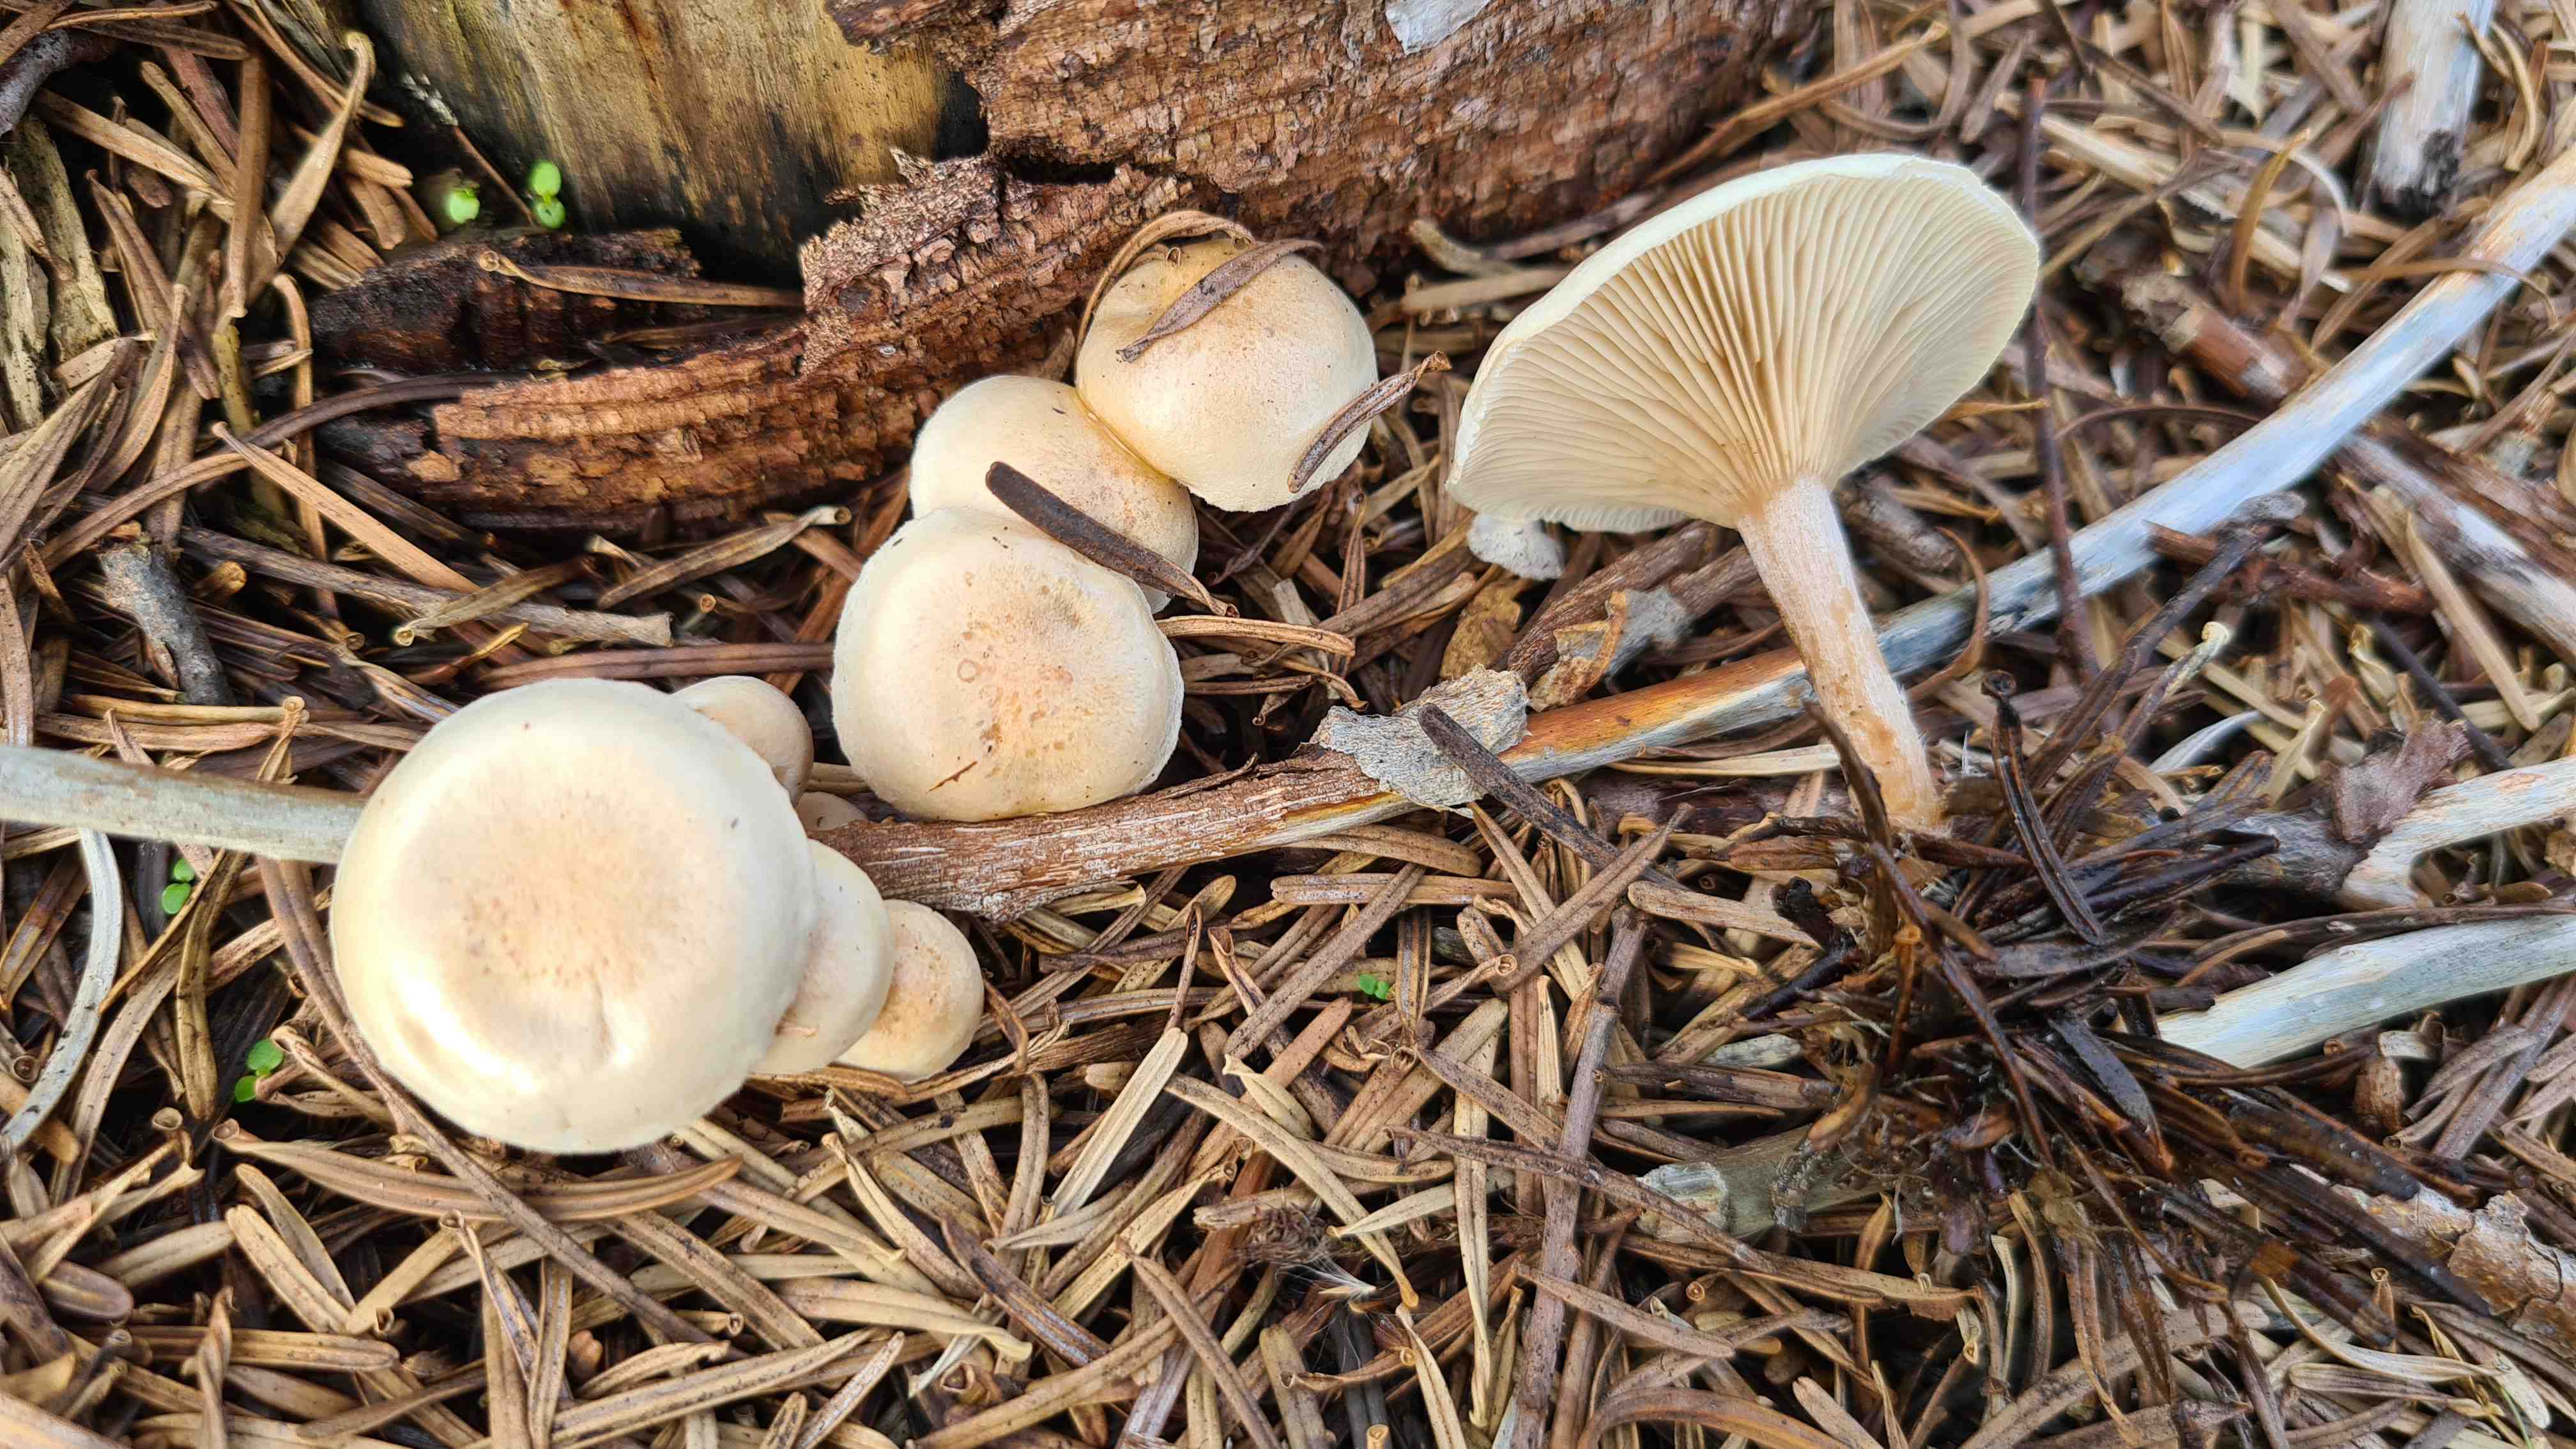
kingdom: Fungi
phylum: Basidiomycota
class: Agaricomycetes
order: Agaricales
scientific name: Agaricales
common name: champignonordenen
